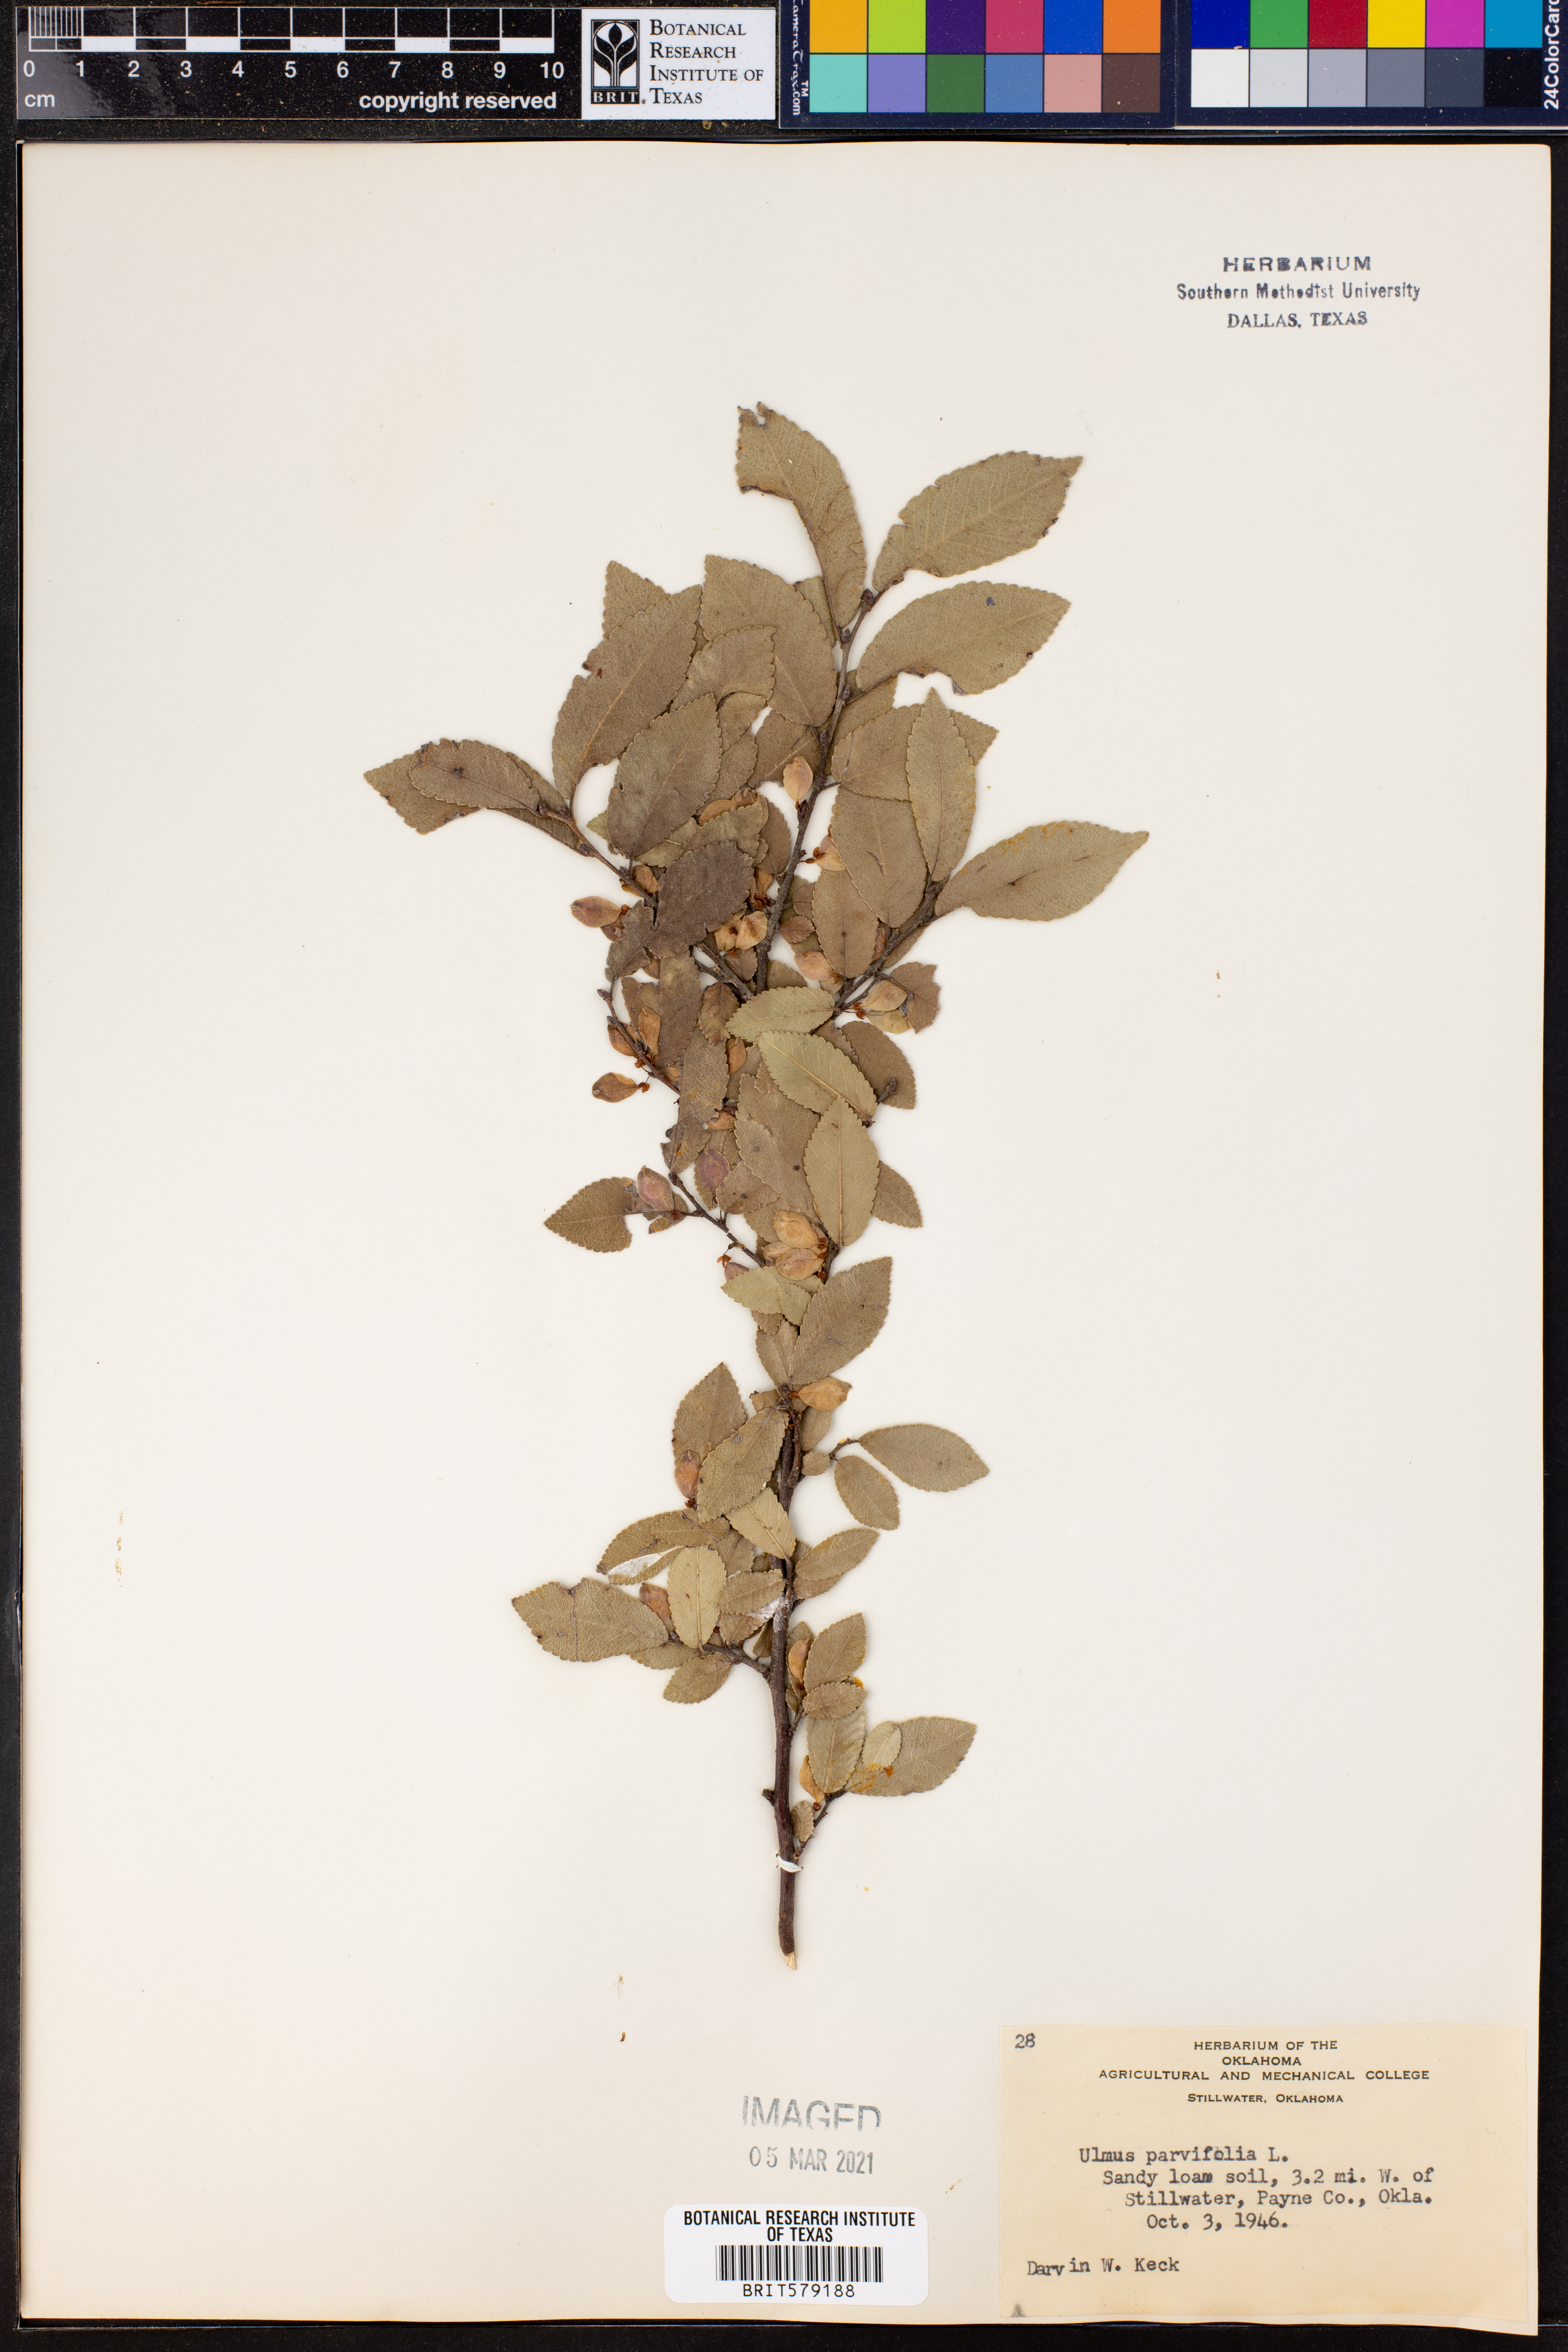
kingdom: Plantae
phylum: Tracheophyta
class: Magnoliopsida
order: Rosales
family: Ulmaceae
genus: Ulmus
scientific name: Ulmus parvifolia
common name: Chinese elm
